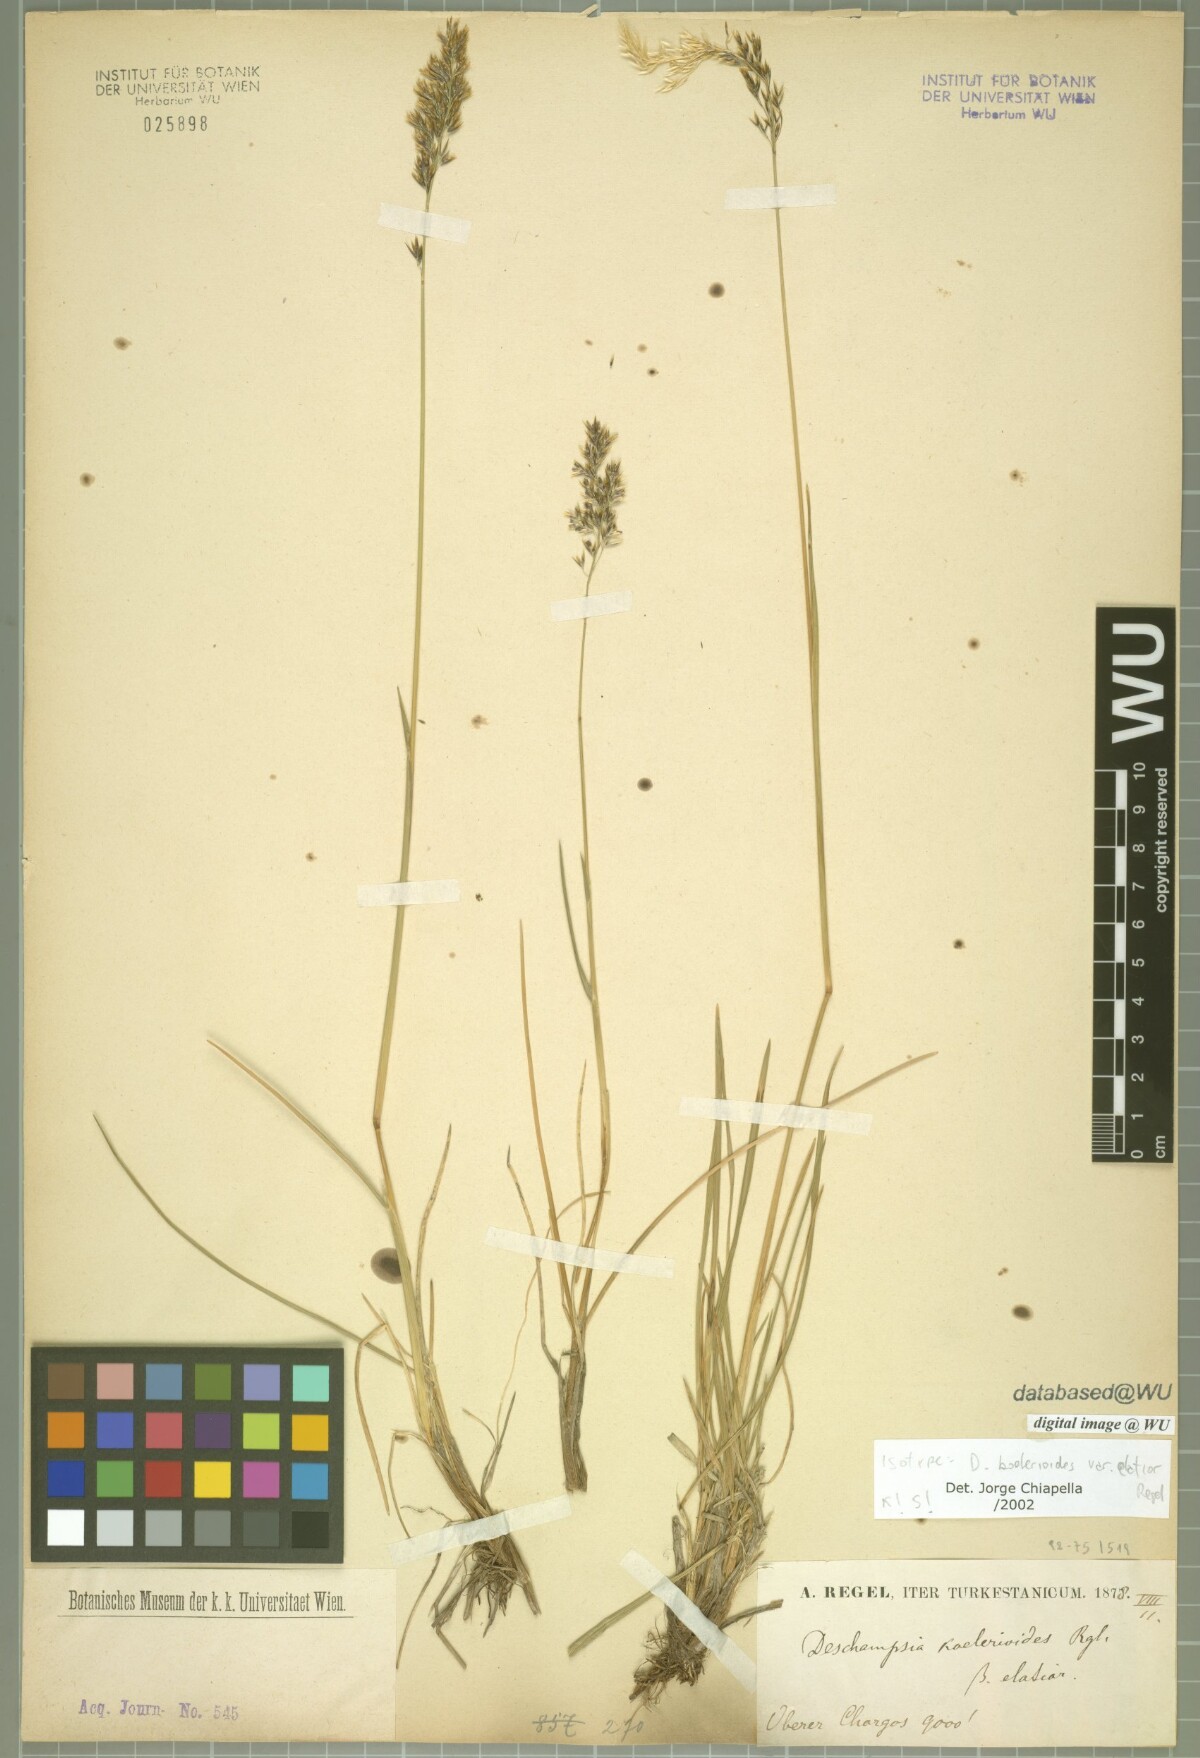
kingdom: Plantae
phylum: Tracheophyta
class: Liliopsida
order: Poales
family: Poaceae
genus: Deschampsia
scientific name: Deschampsia koelerioides
